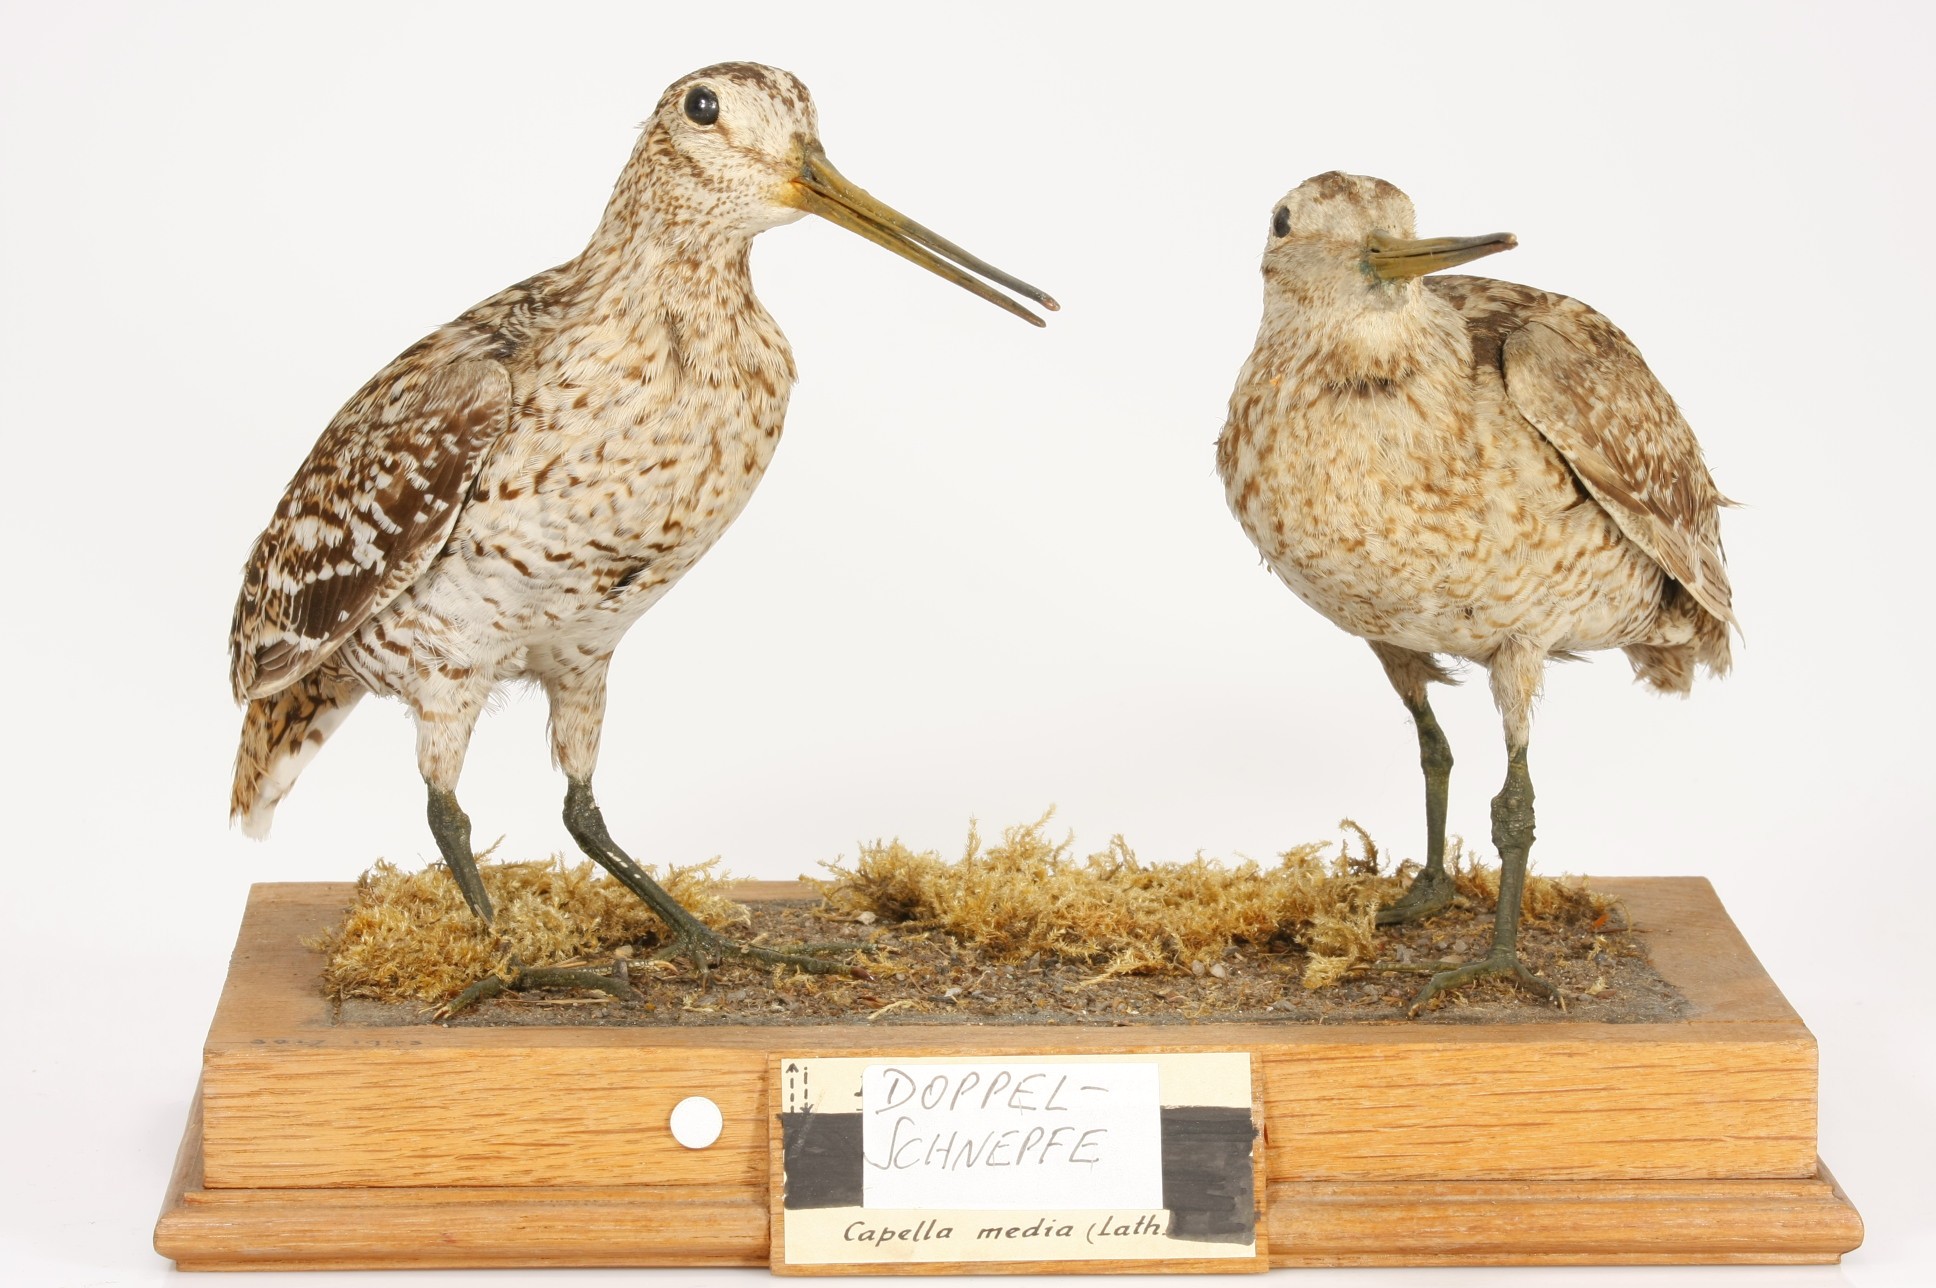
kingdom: Animalia
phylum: Chordata
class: Aves
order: Charadriiformes
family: Scolopacidae
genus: Gallinago
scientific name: Gallinago media
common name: Great snipe
